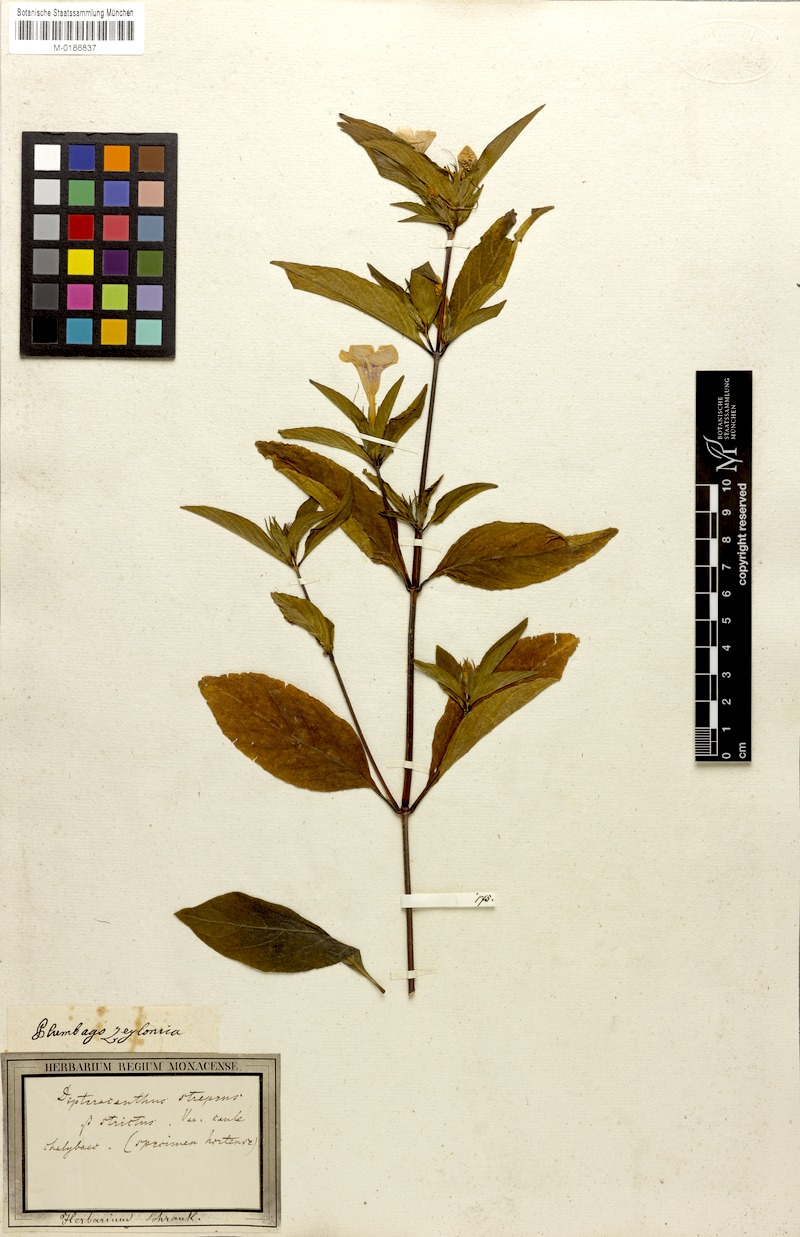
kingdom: Plantae
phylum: Tracheophyta
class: Magnoliopsida
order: Lamiales
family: Acanthaceae
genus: Ruellia
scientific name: Ruellia strepens
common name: Limestone wild petunia
